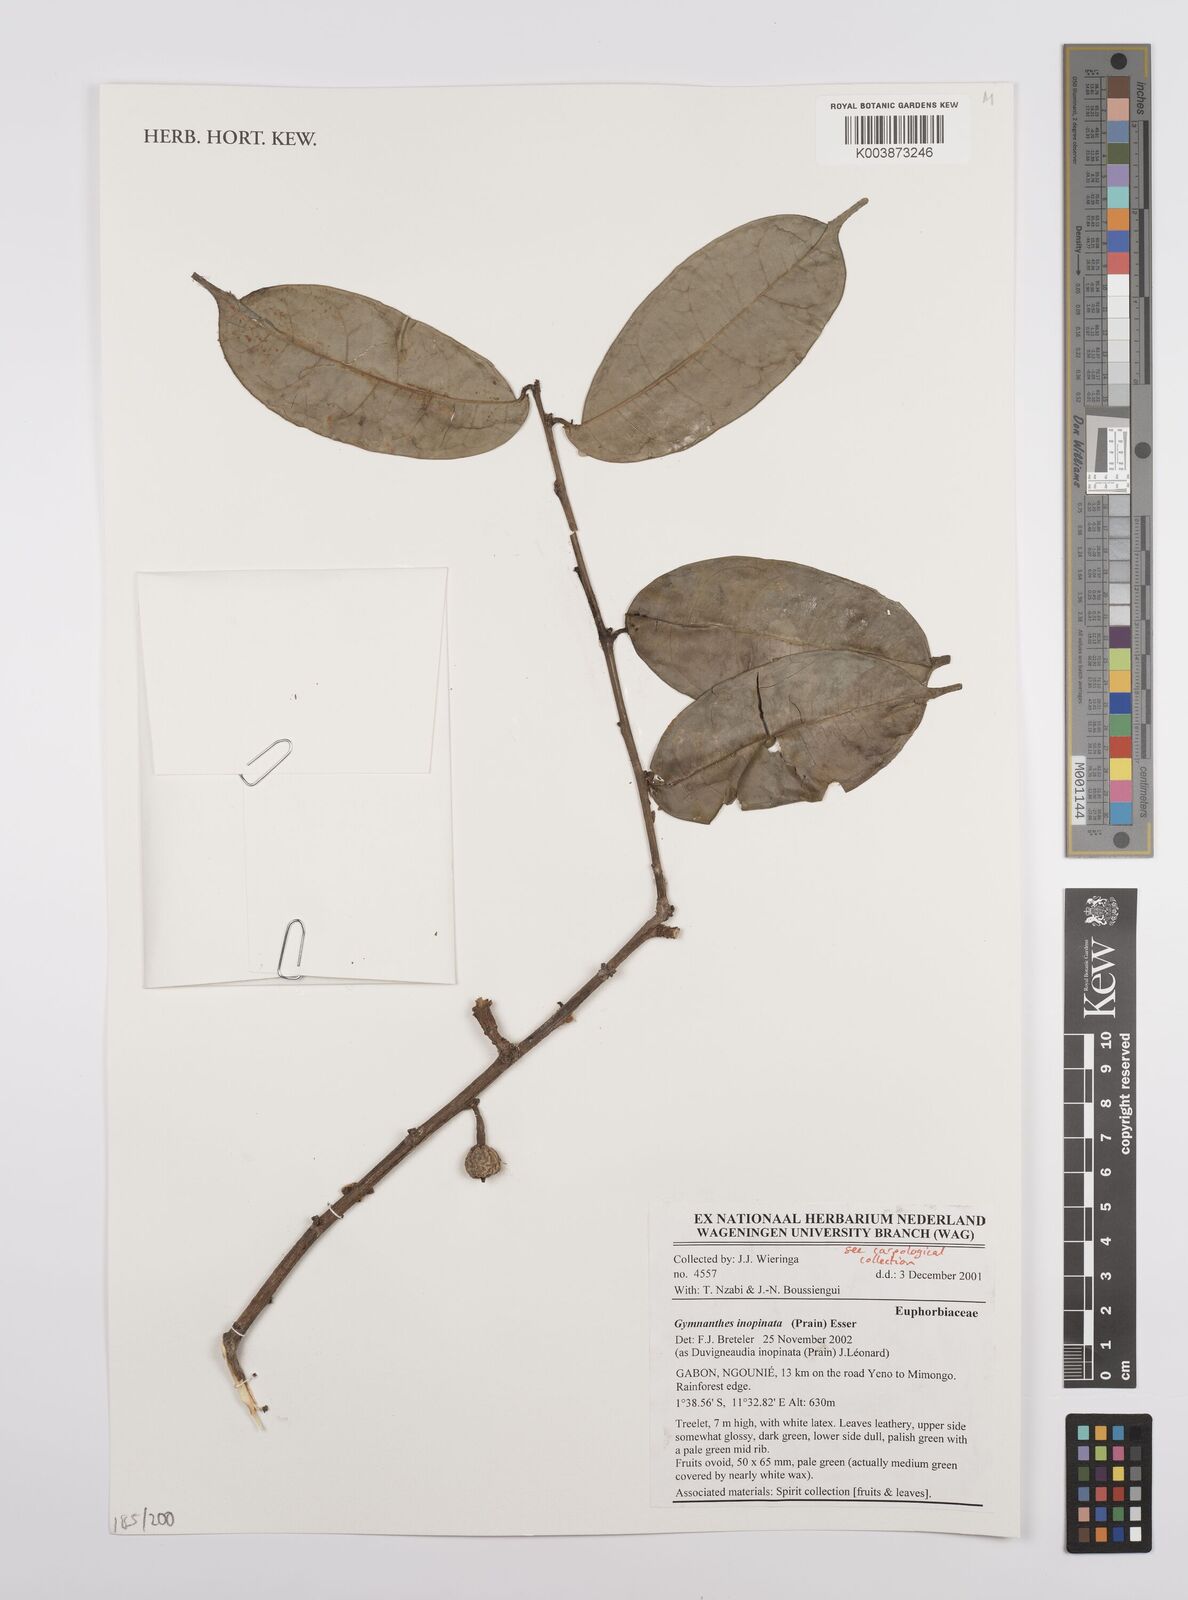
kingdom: Plantae
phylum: Tracheophyta
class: Magnoliopsida
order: Malpighiales
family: Euphorbiaceae
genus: Gymnanthes
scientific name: Gymnanthes inopinata
